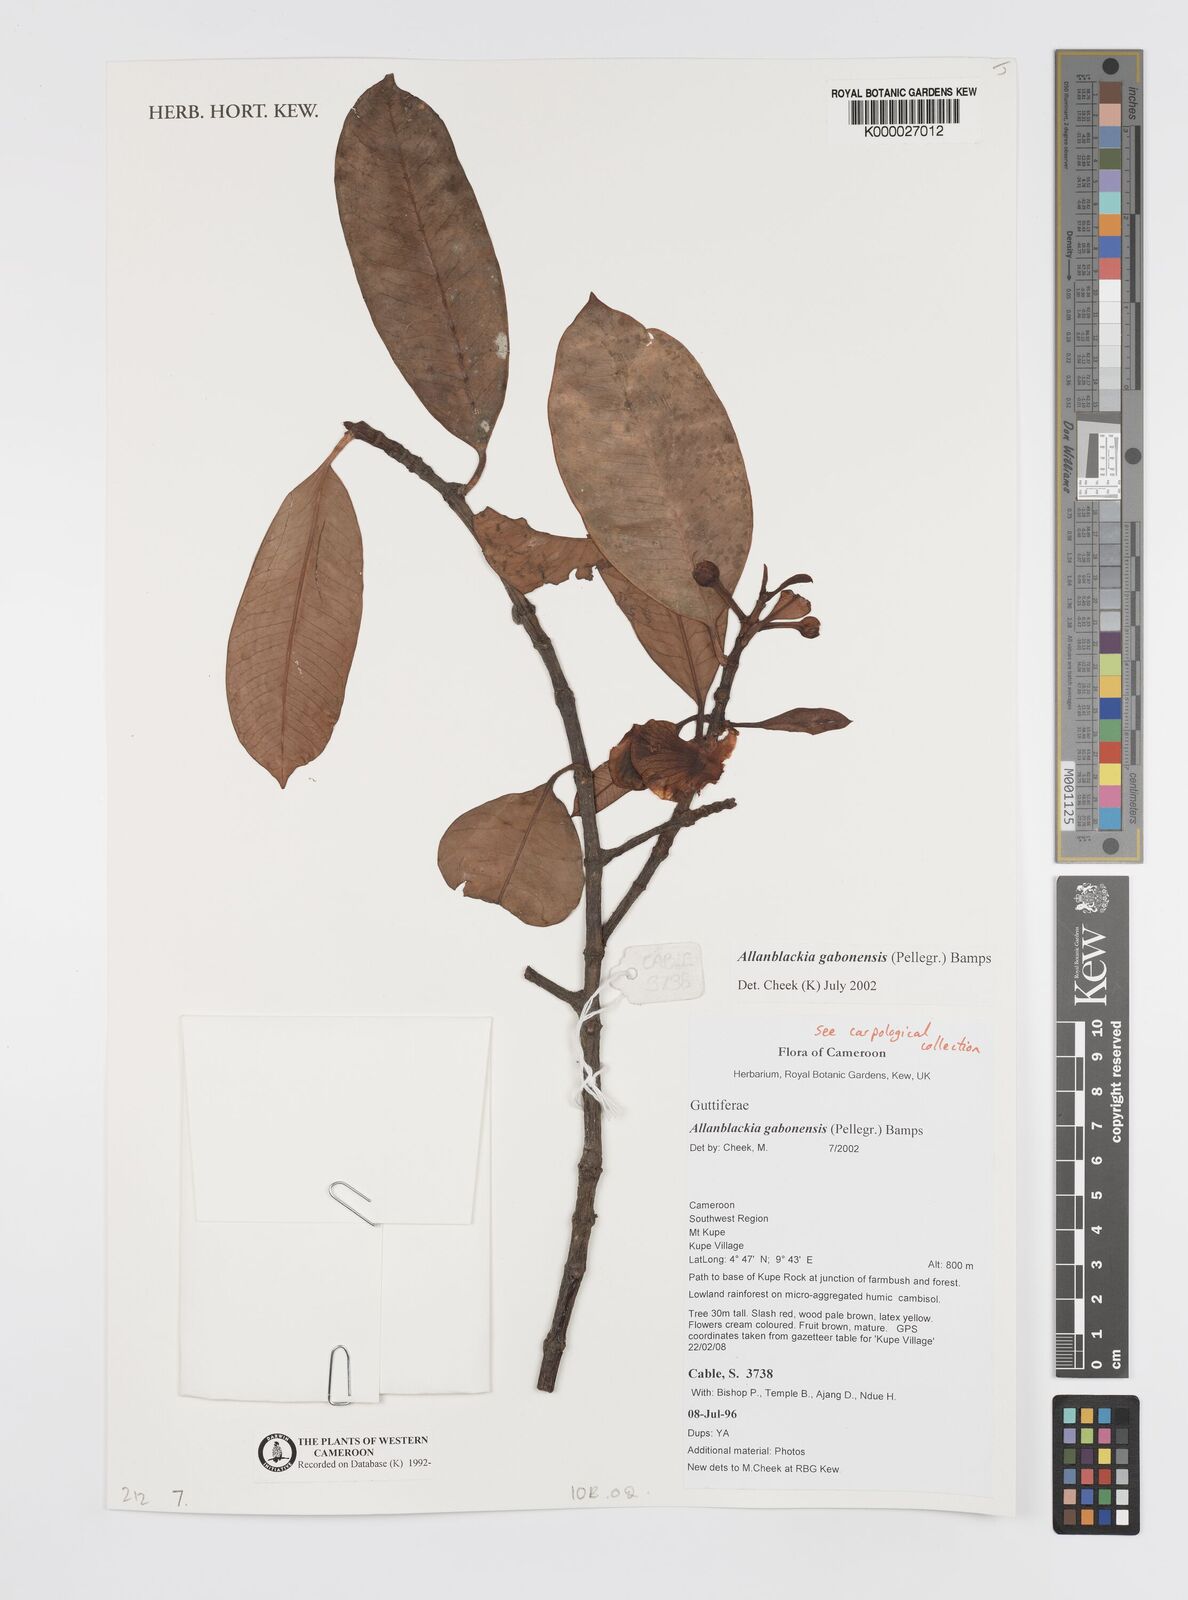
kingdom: Plantae
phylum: Tracheophyta
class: Magnoliopsida
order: Malpighiales
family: Clusiaceae
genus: Allanblackia
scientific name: Allanblackia gabonensis
